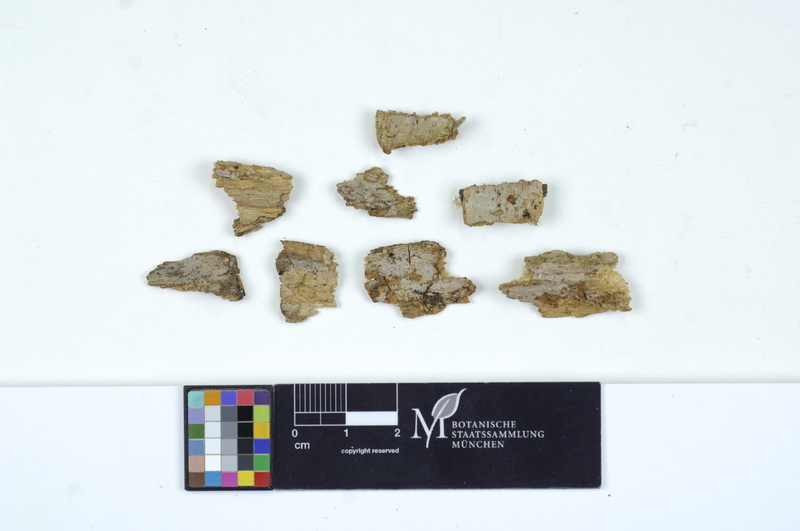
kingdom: Plantae
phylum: Tracheophyta
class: Magnoliopsida
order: Lamiales
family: Oleaceae
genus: Fraxinus
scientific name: Fraxinus
